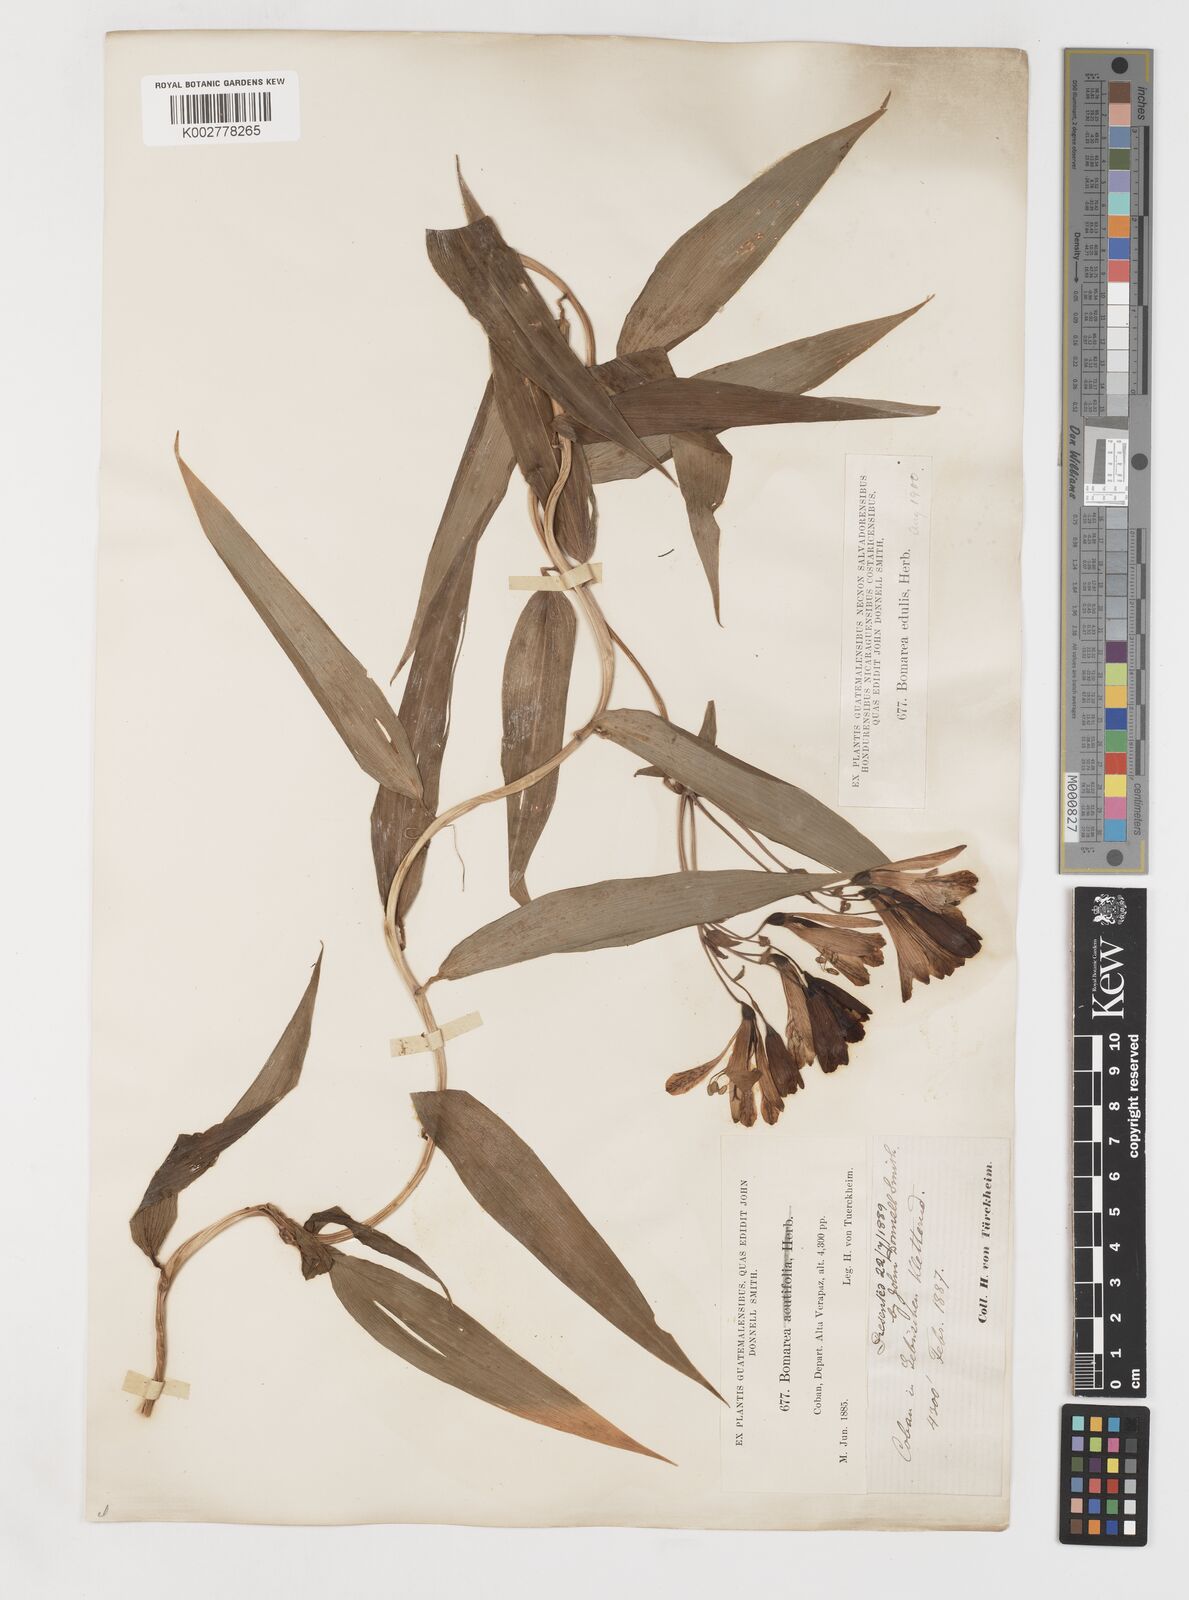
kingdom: Plantae
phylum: Tracheophyta
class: Liliopsida
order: Liliales
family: Alstroemeriaceae
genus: Bomarea
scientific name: Bomarea edulis
